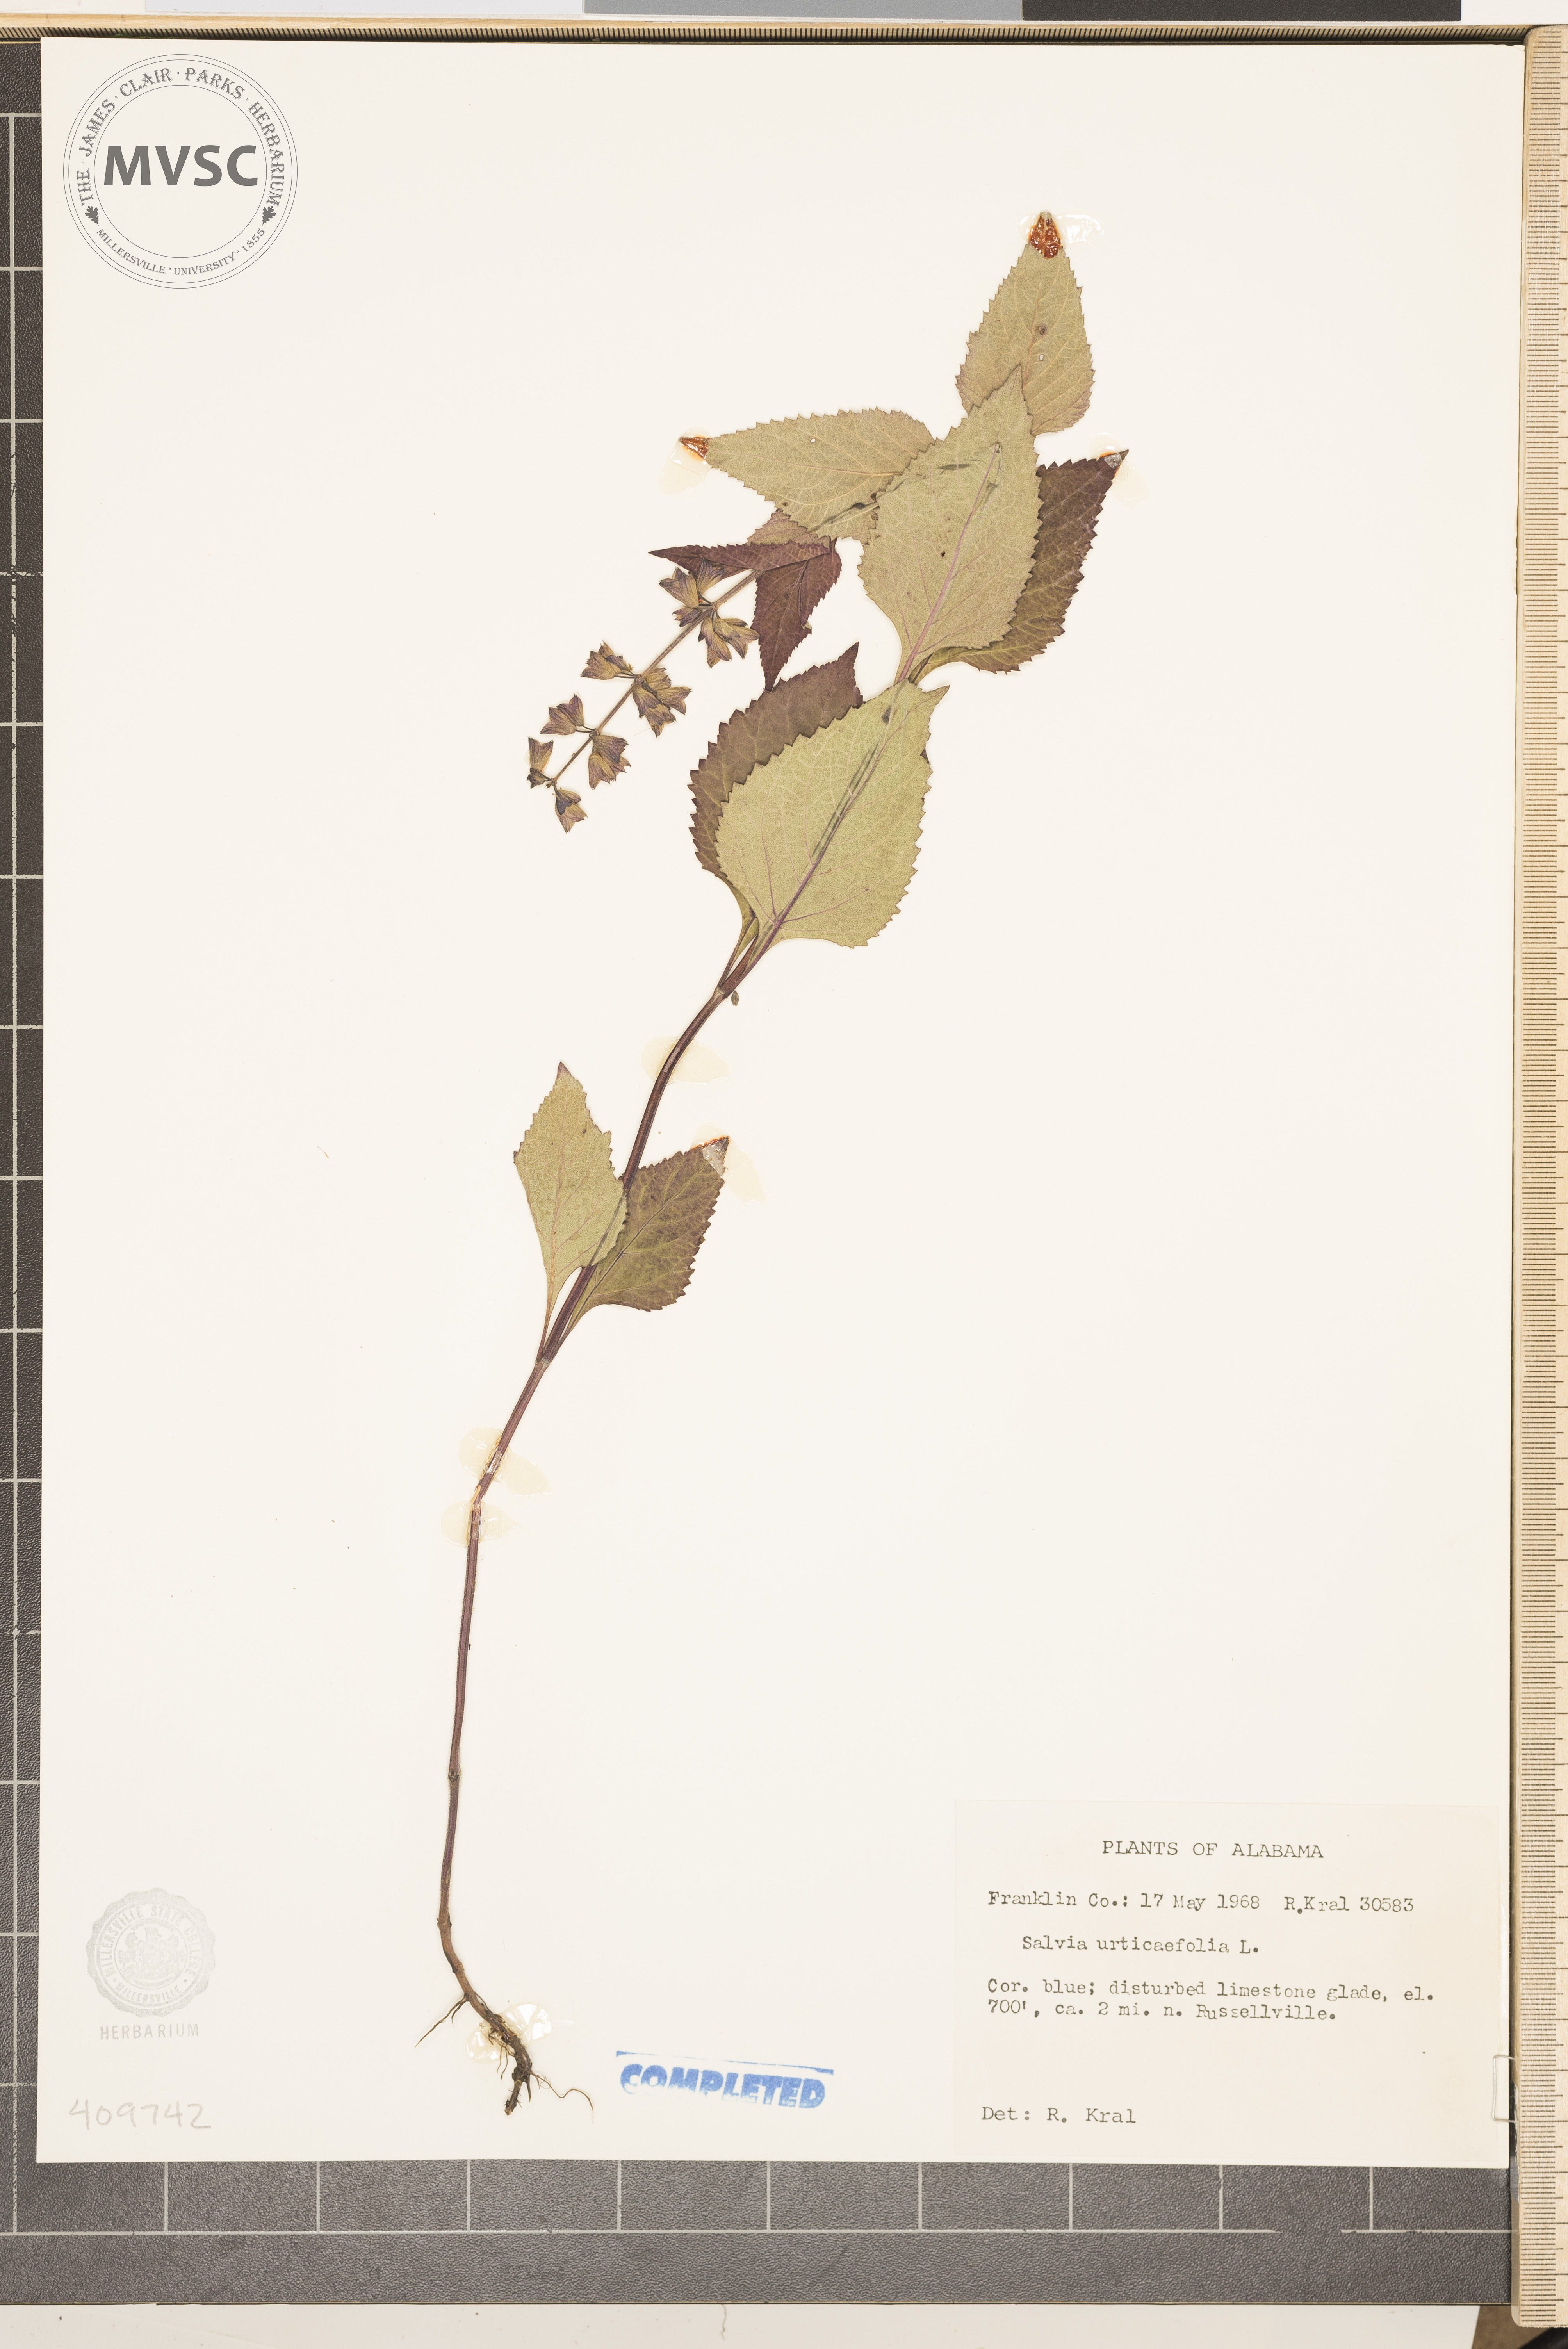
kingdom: Plantae
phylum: Tracheophyta
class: Magnoliopsida
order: Lamiales
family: Lamiaceae
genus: Salvia
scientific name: Salvia urticifolia
